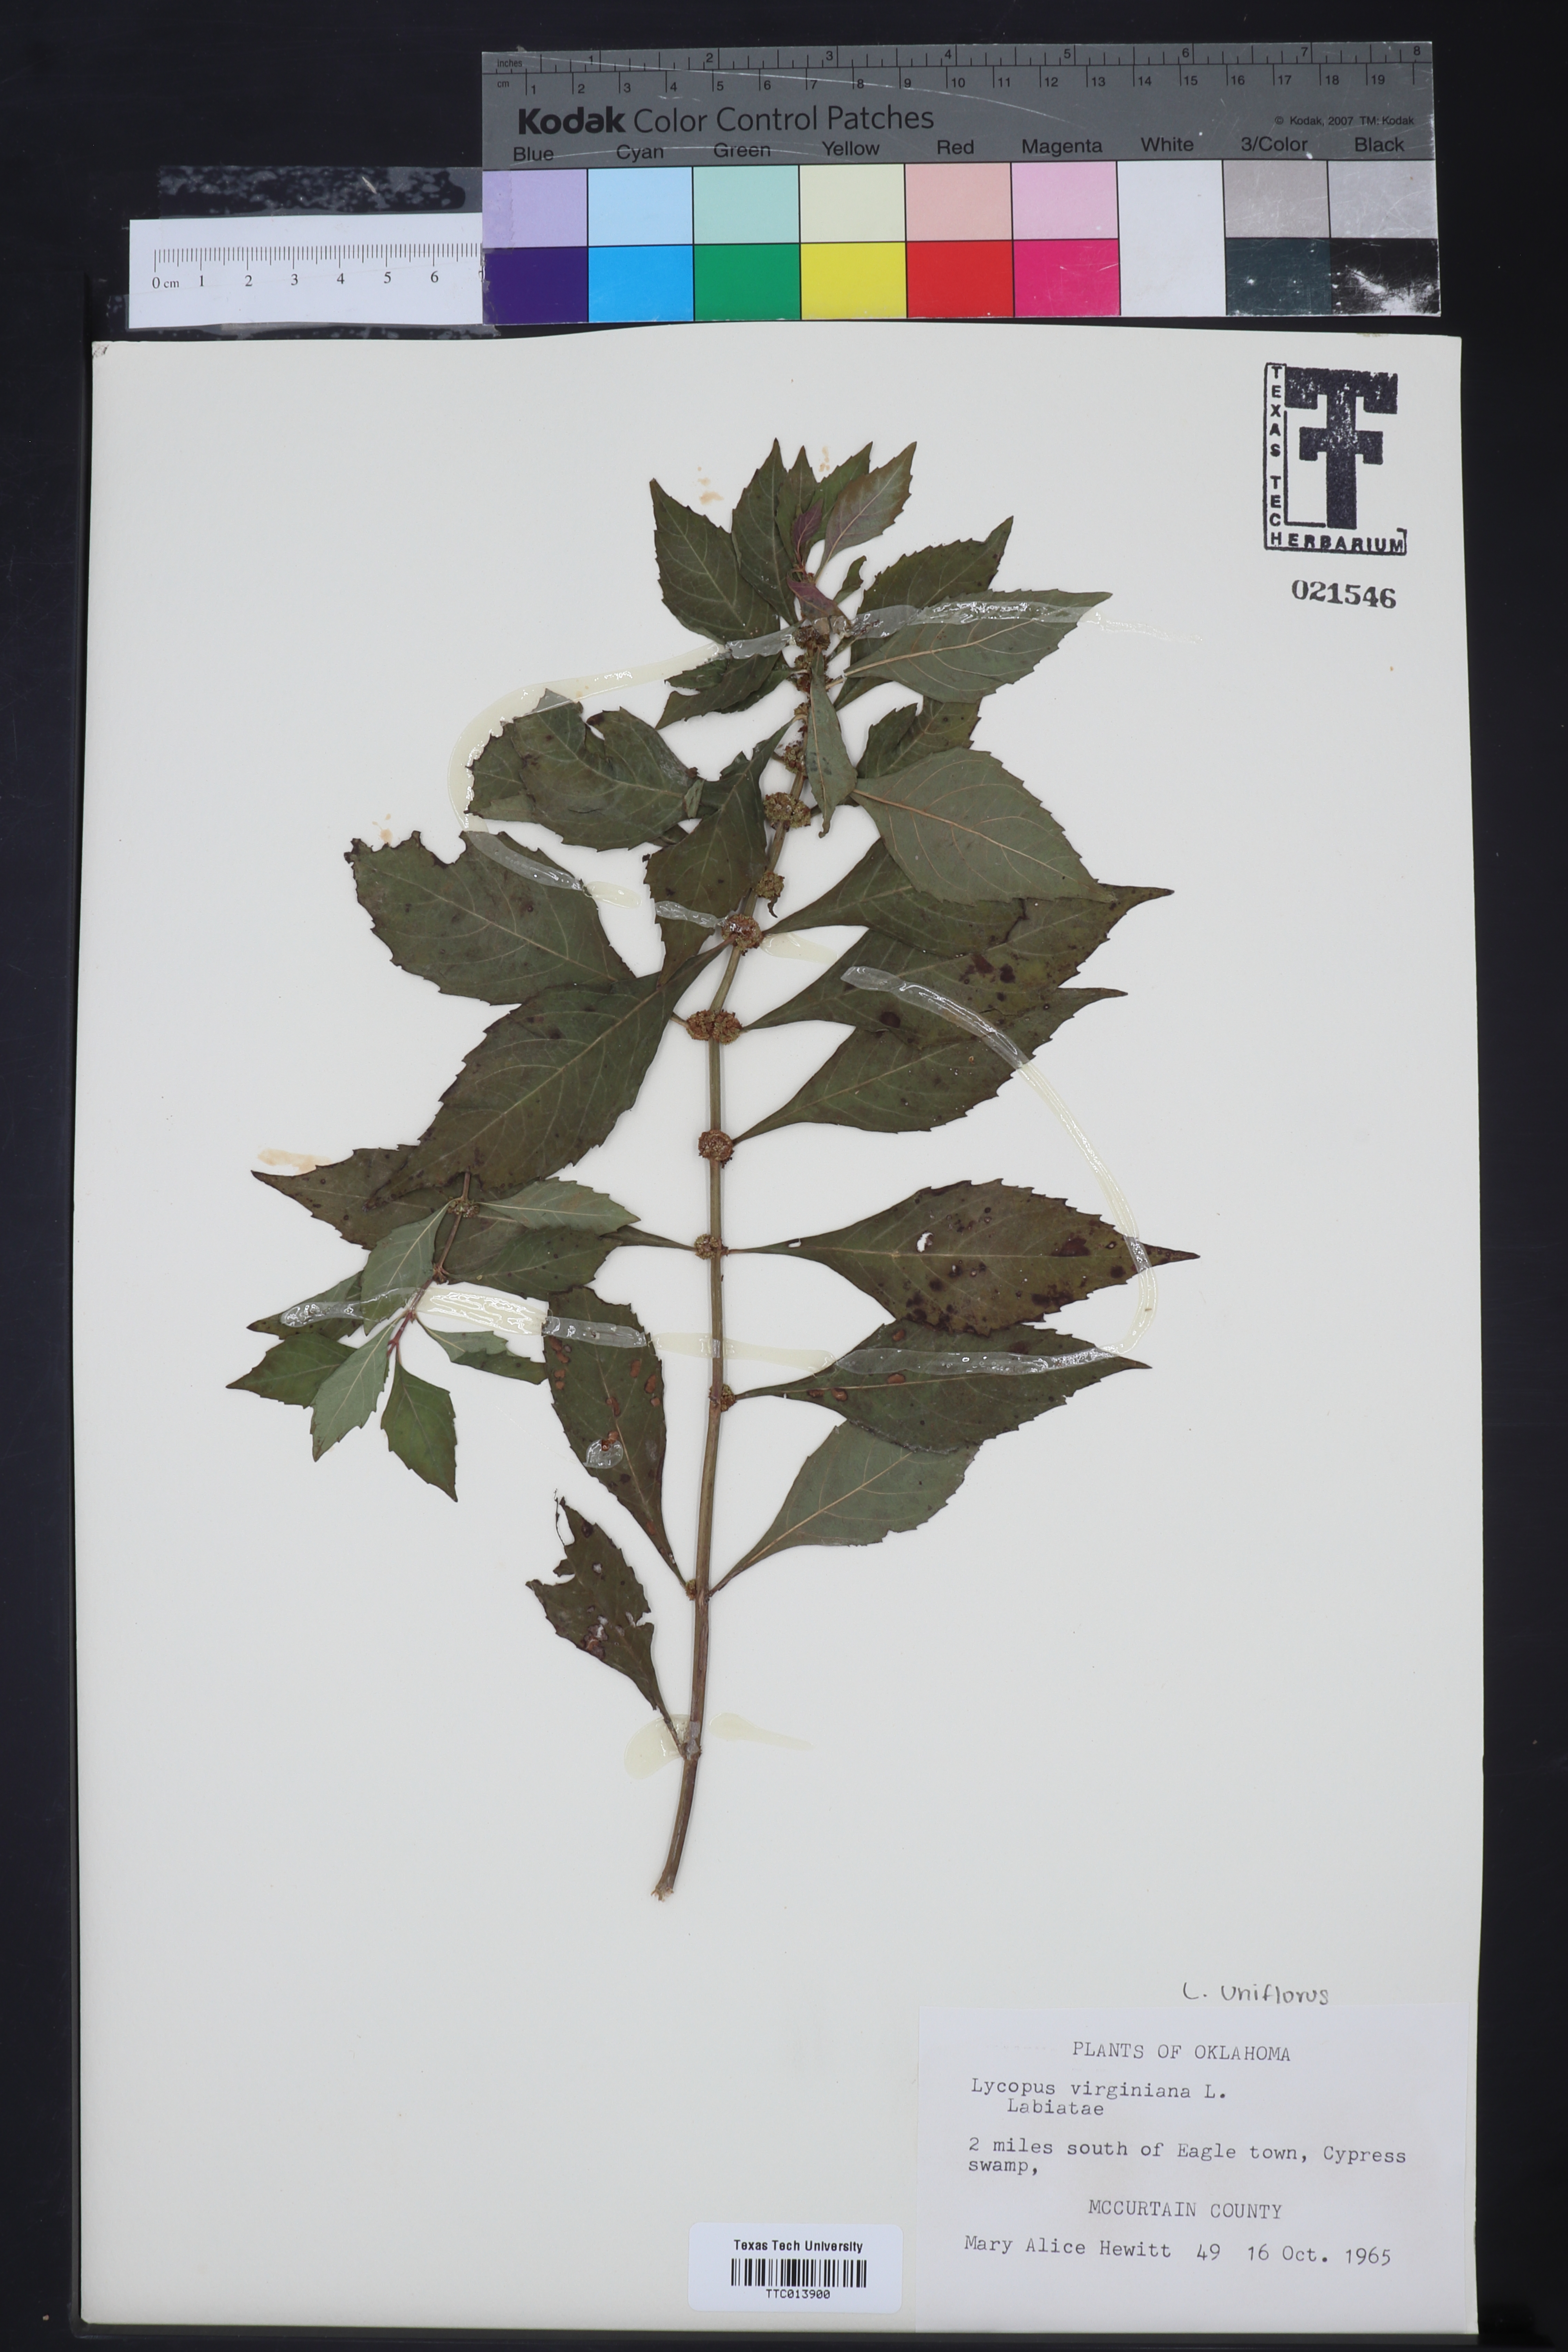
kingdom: Plantae
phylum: Tracheophyta
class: Magnoliopsida
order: Lamiales
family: Lamiaceae
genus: Lycopus
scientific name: Lycopus rubellus
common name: Stalked bugleweed
